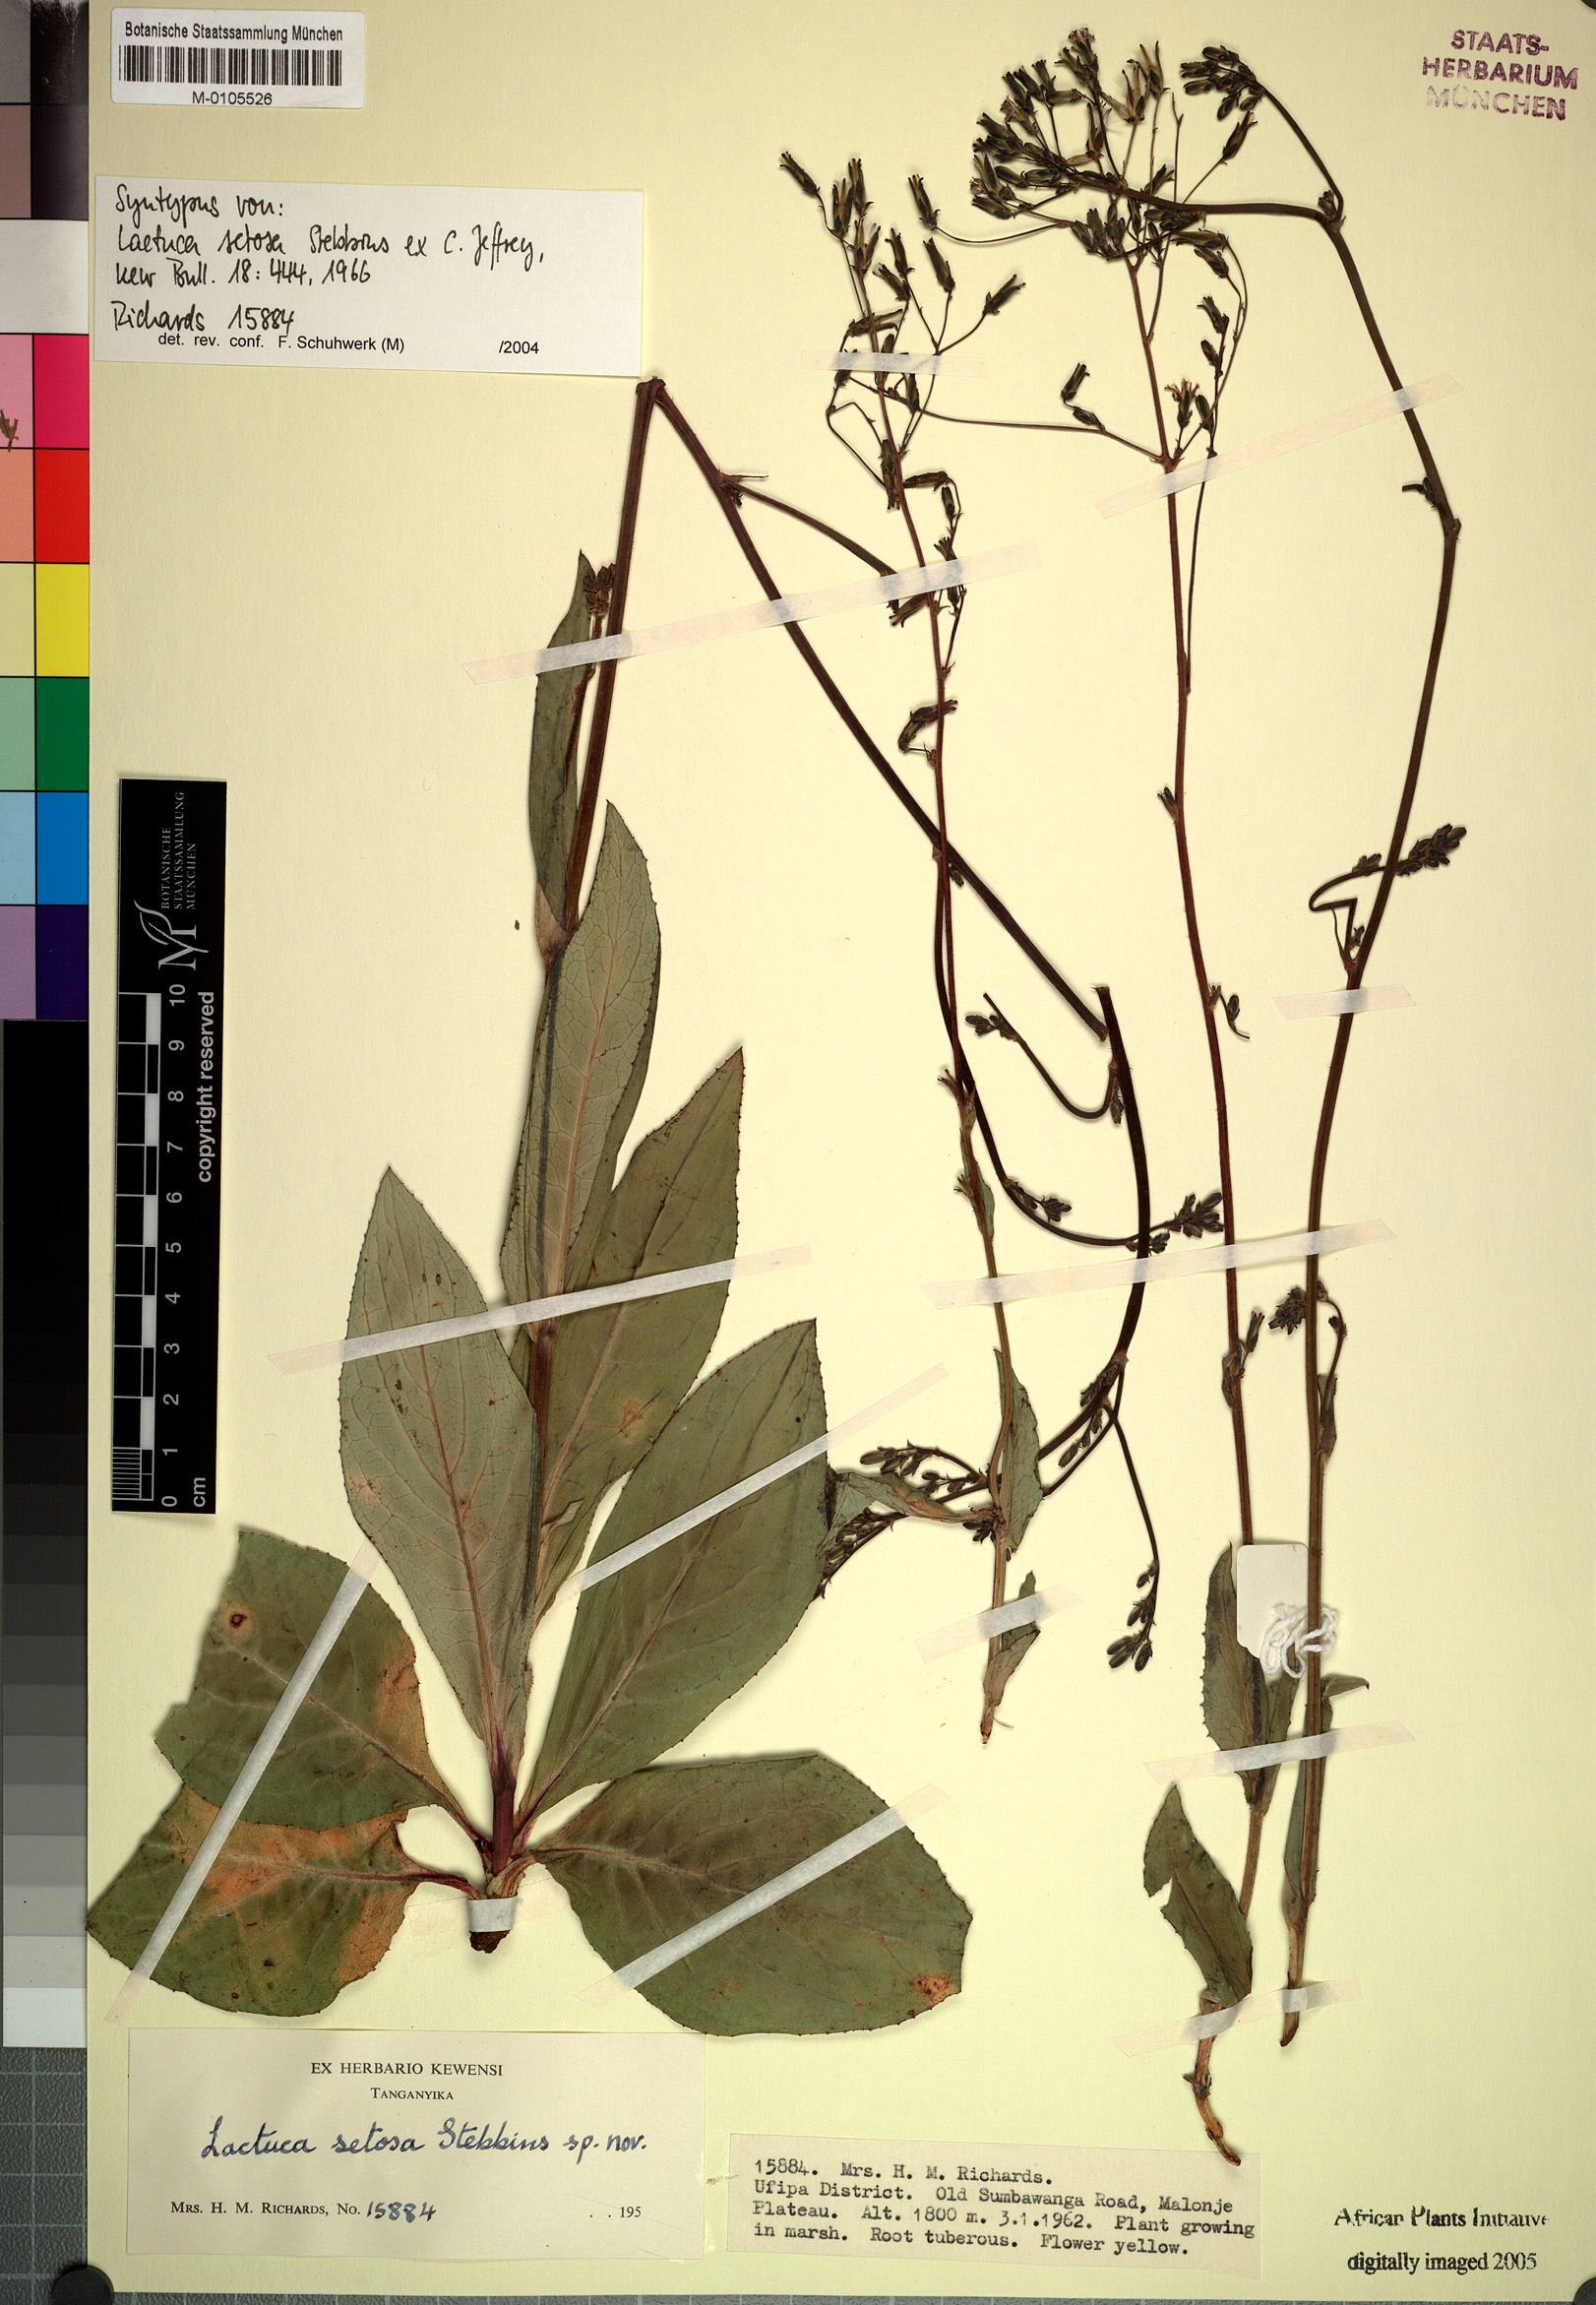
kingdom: Plantae
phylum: Tracheophyta
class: Magnoliopsida
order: Asterales
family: Asteraceae
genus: Lactuca
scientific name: Lactuca setosa
